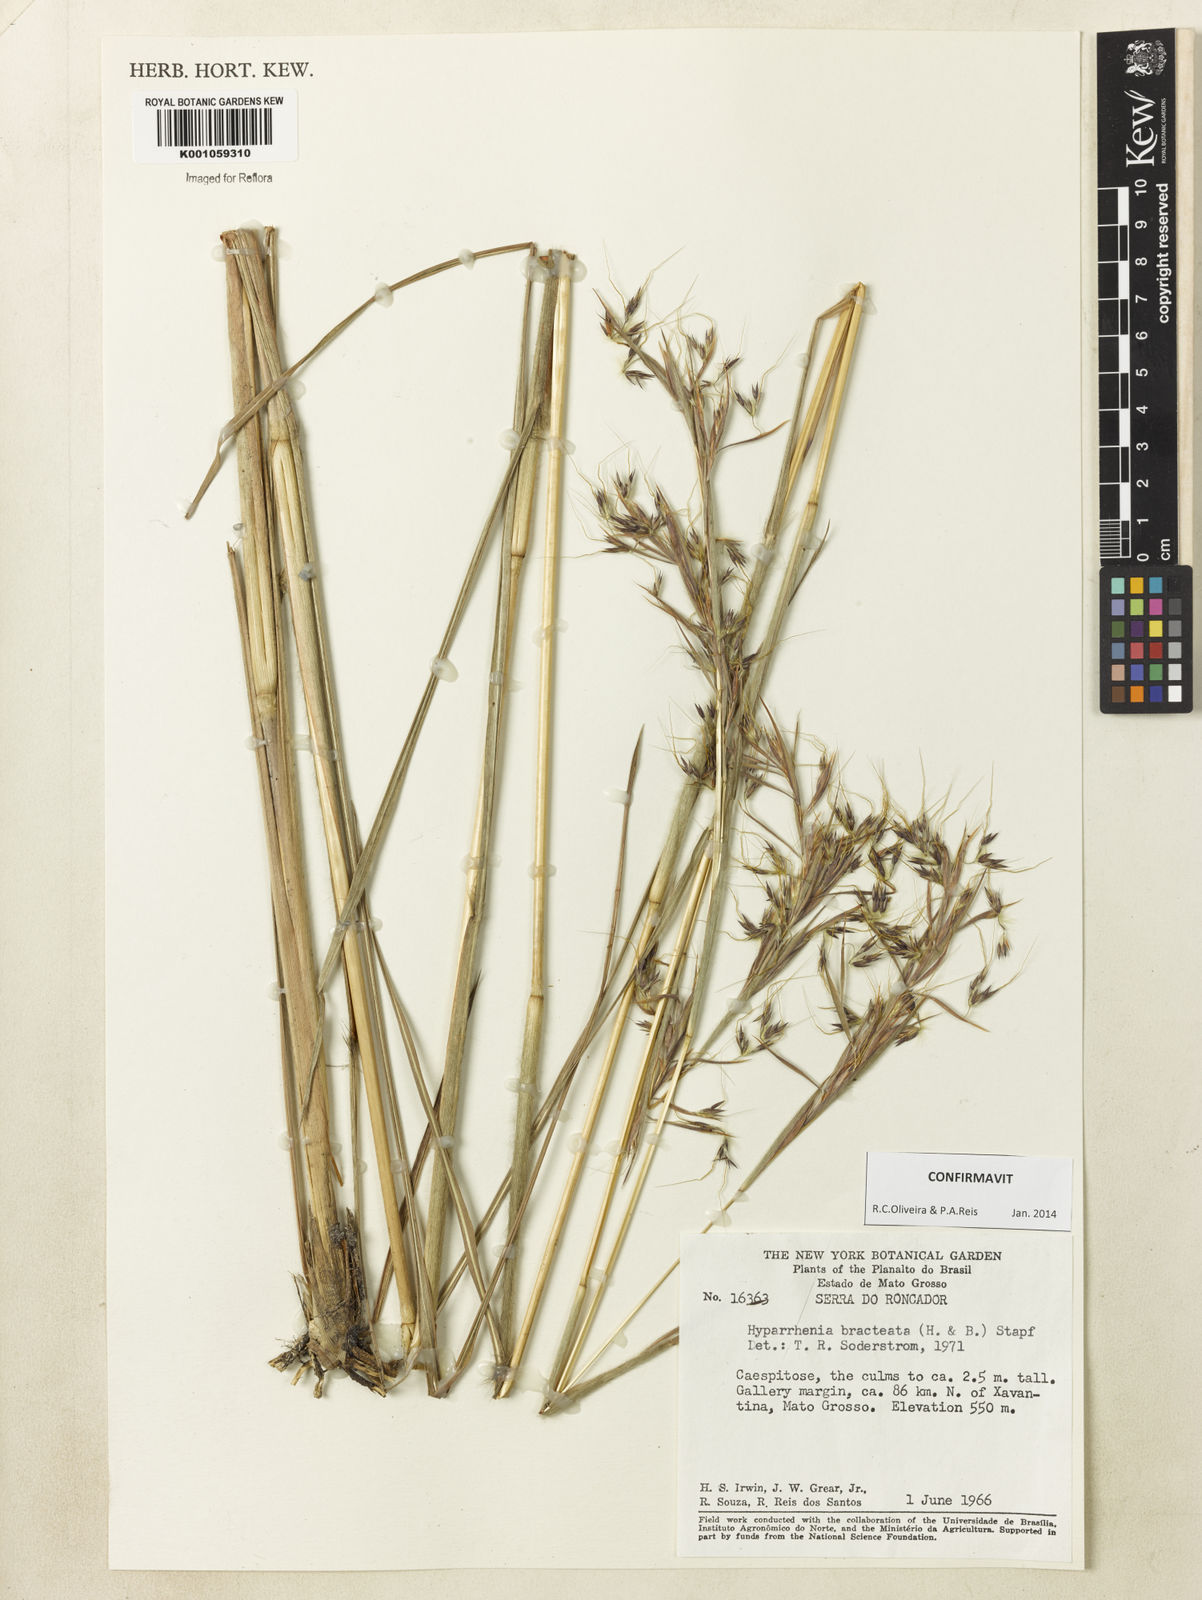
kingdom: Plantae
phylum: Tracheophyta
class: Liliopsida
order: Poales
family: Poaceae
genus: Hyparrhenia
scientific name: Hyparrhenia bracteata
